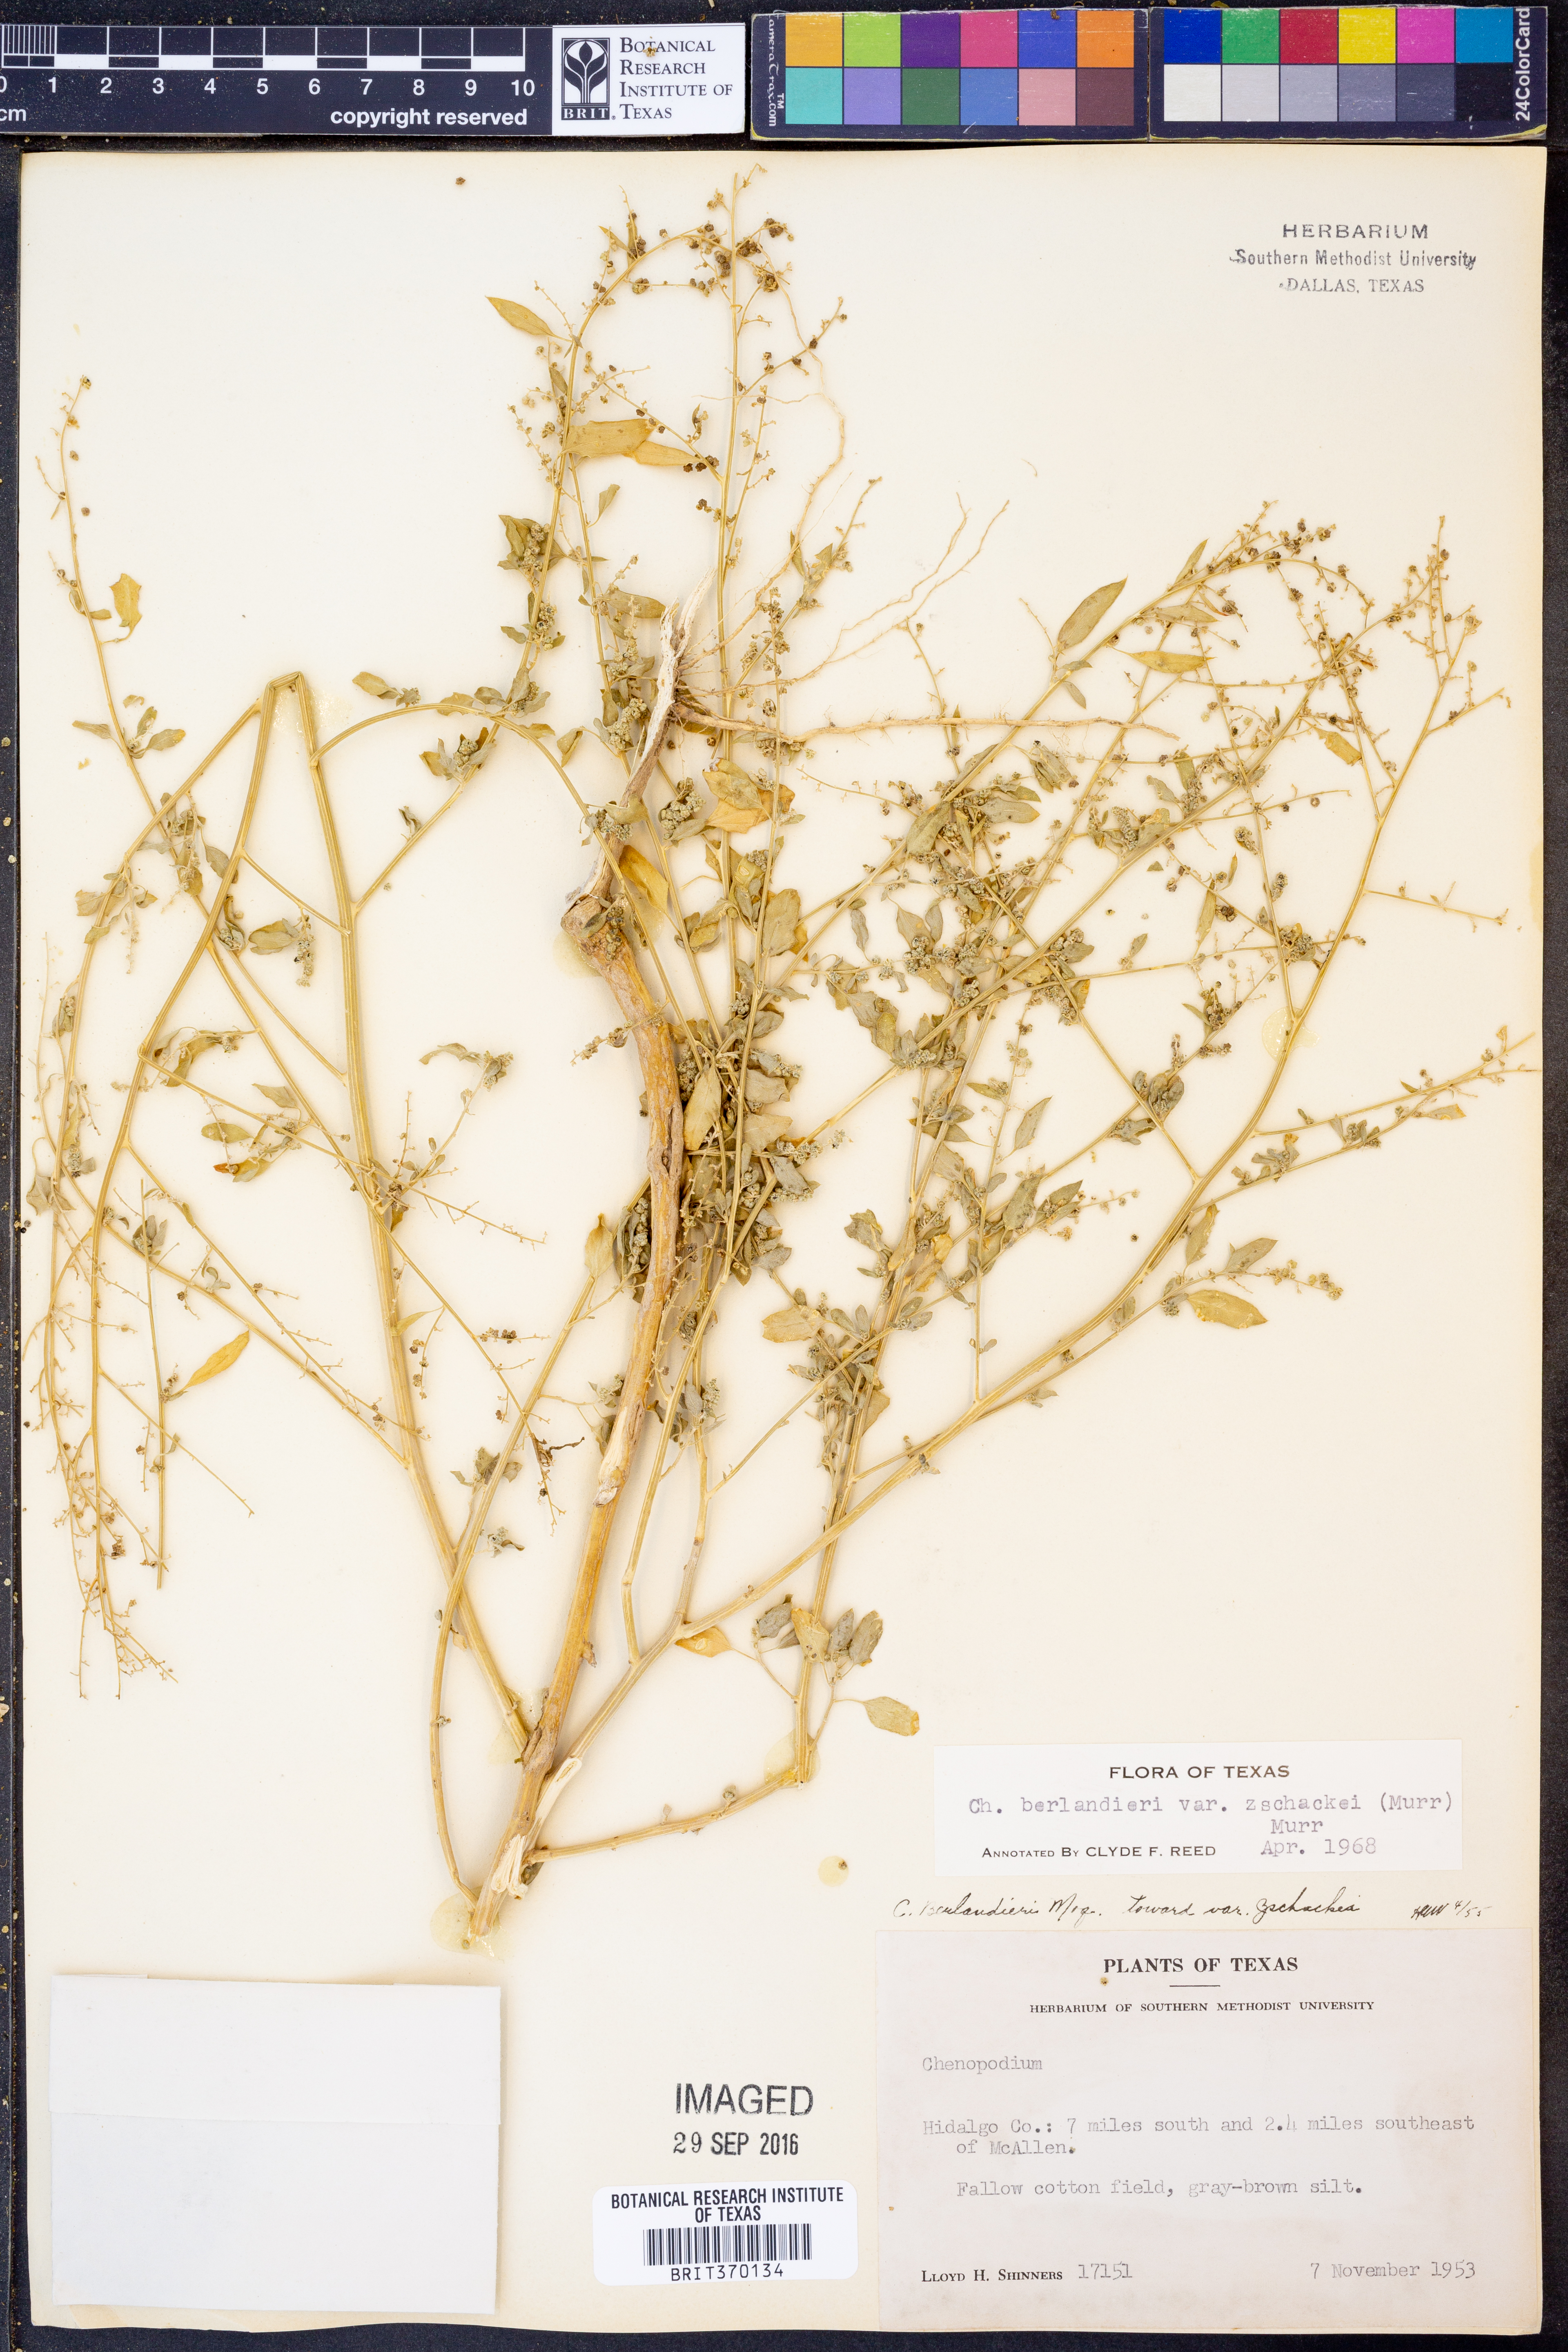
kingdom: Plantae
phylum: Tracheophyta
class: Magnoliopsida
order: Caryophyllales
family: Amaranthaceae
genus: Chenopodium
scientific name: Chenopodium berlandieri
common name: Pit-seed goosefoot
